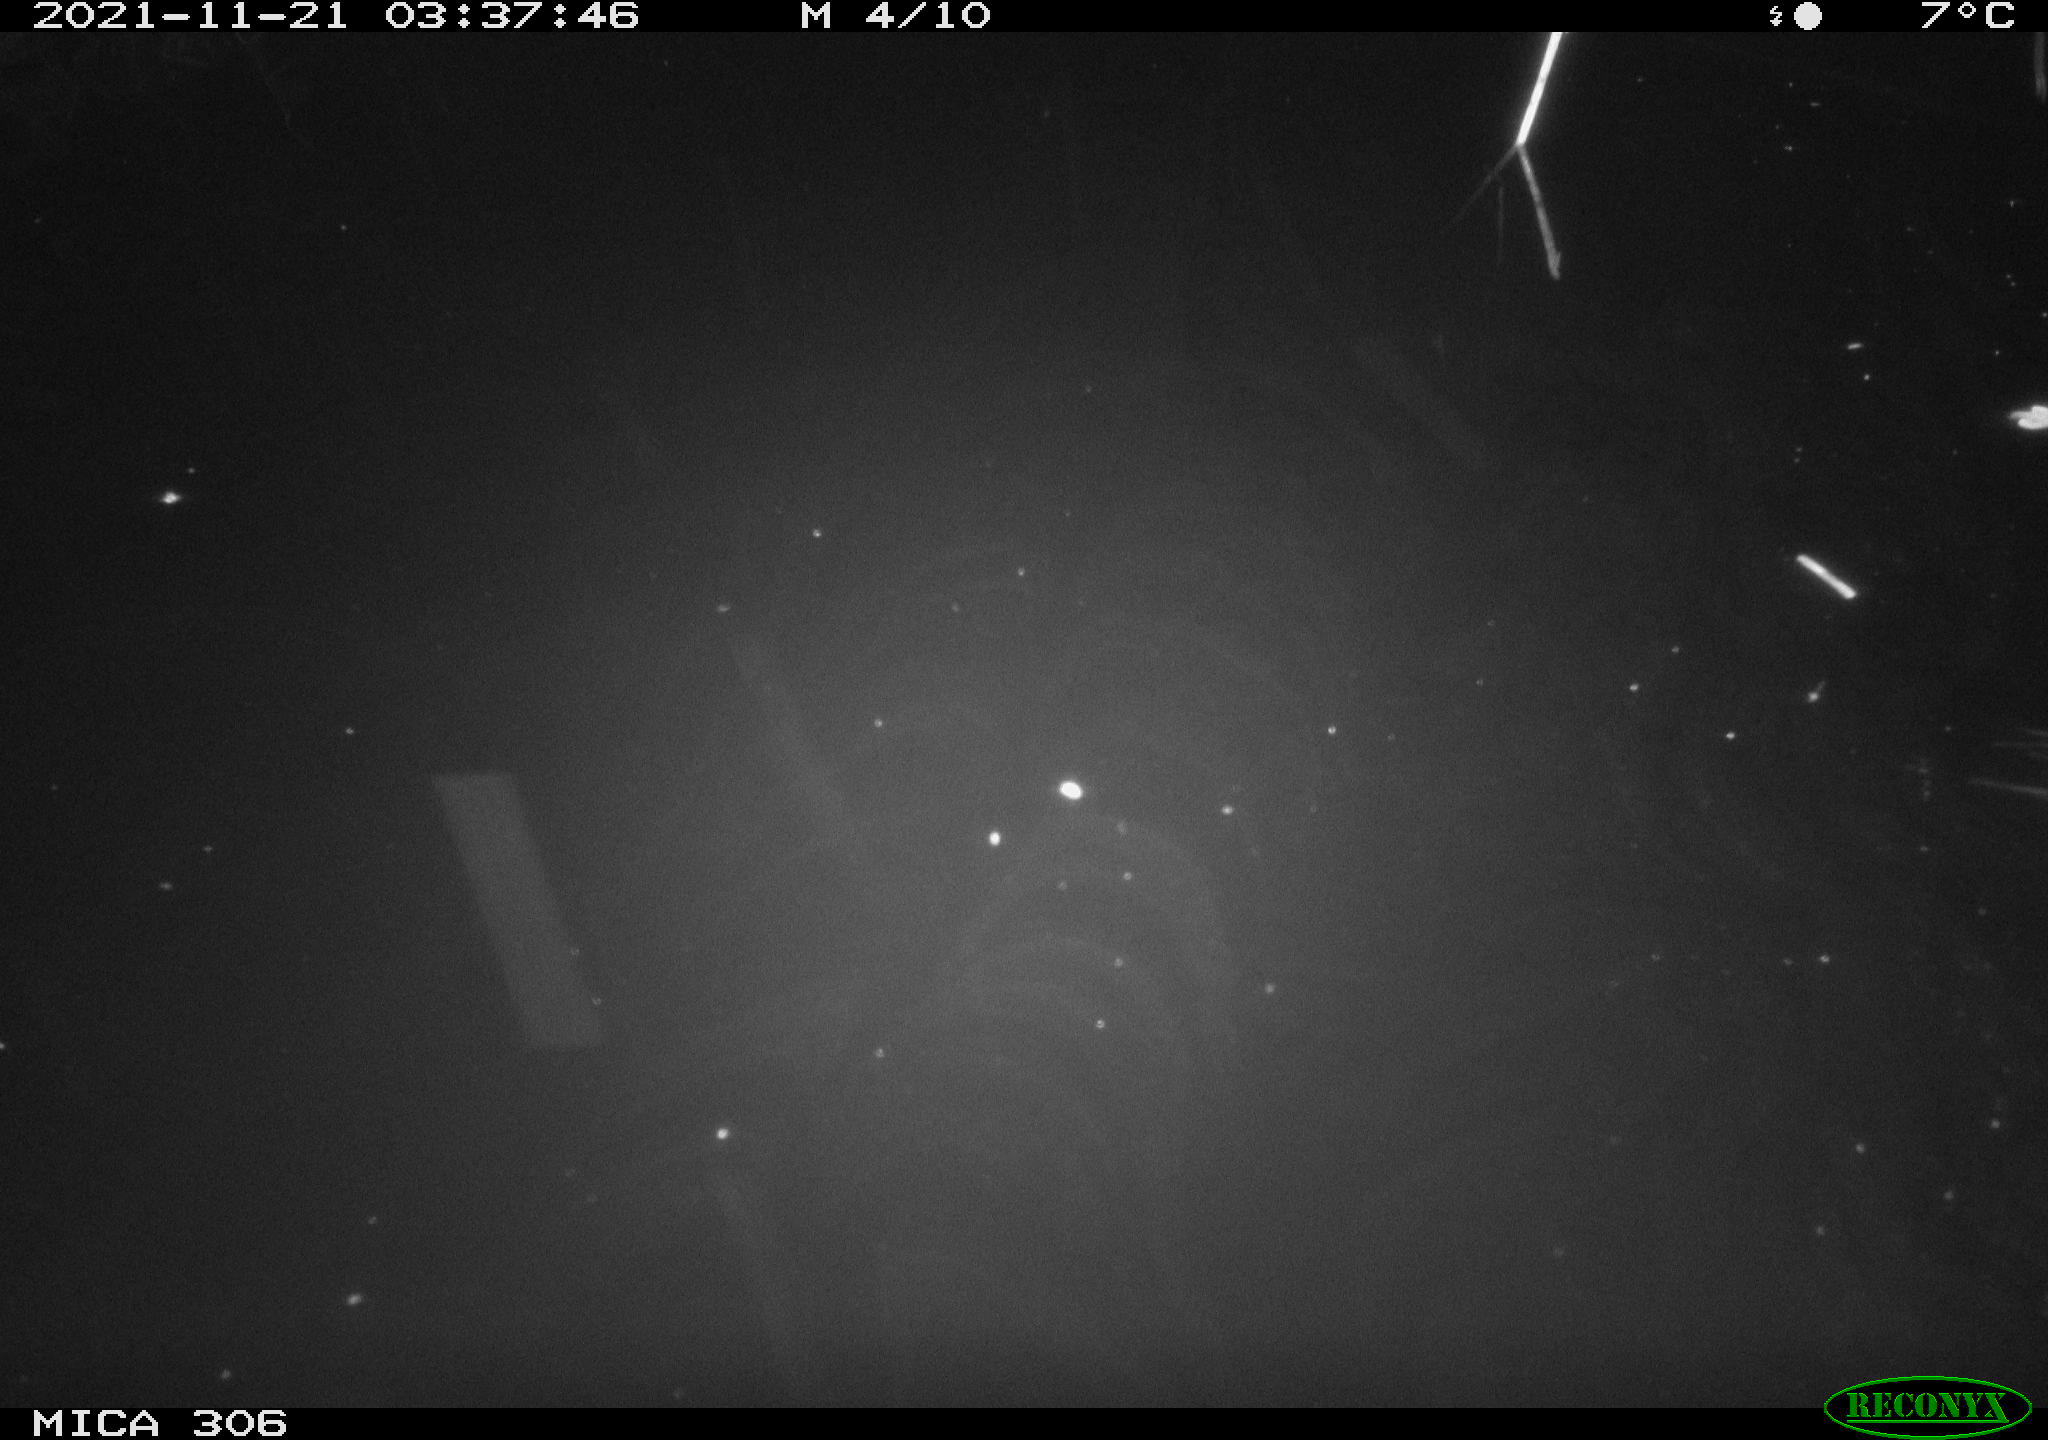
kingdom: Animalia
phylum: Chordata
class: Mammalia
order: Rodentia
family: Muridae
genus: Rattus
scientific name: Rattus norvegicus
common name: Brown rat
